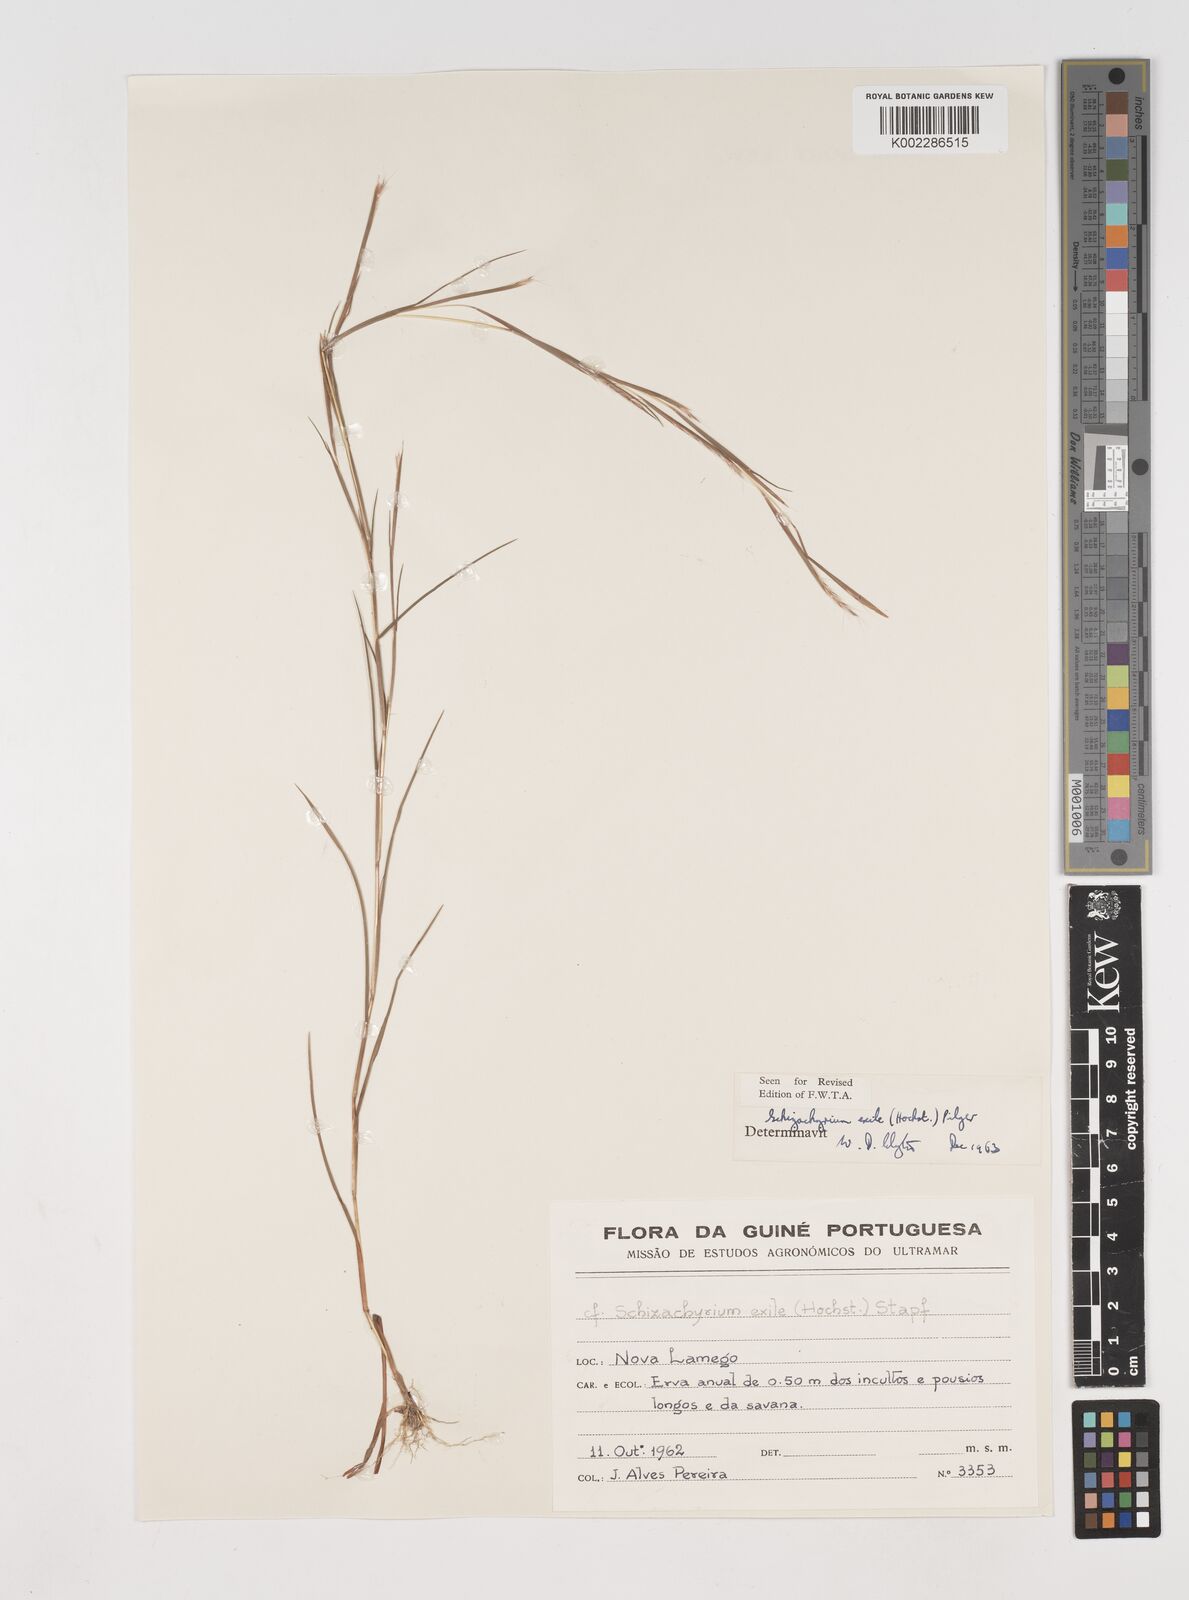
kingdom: Plantae
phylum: Tracheophyta
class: Liliopsida
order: Poales
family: Poaceae
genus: Schizachyrium
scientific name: Schizachyrium exile
